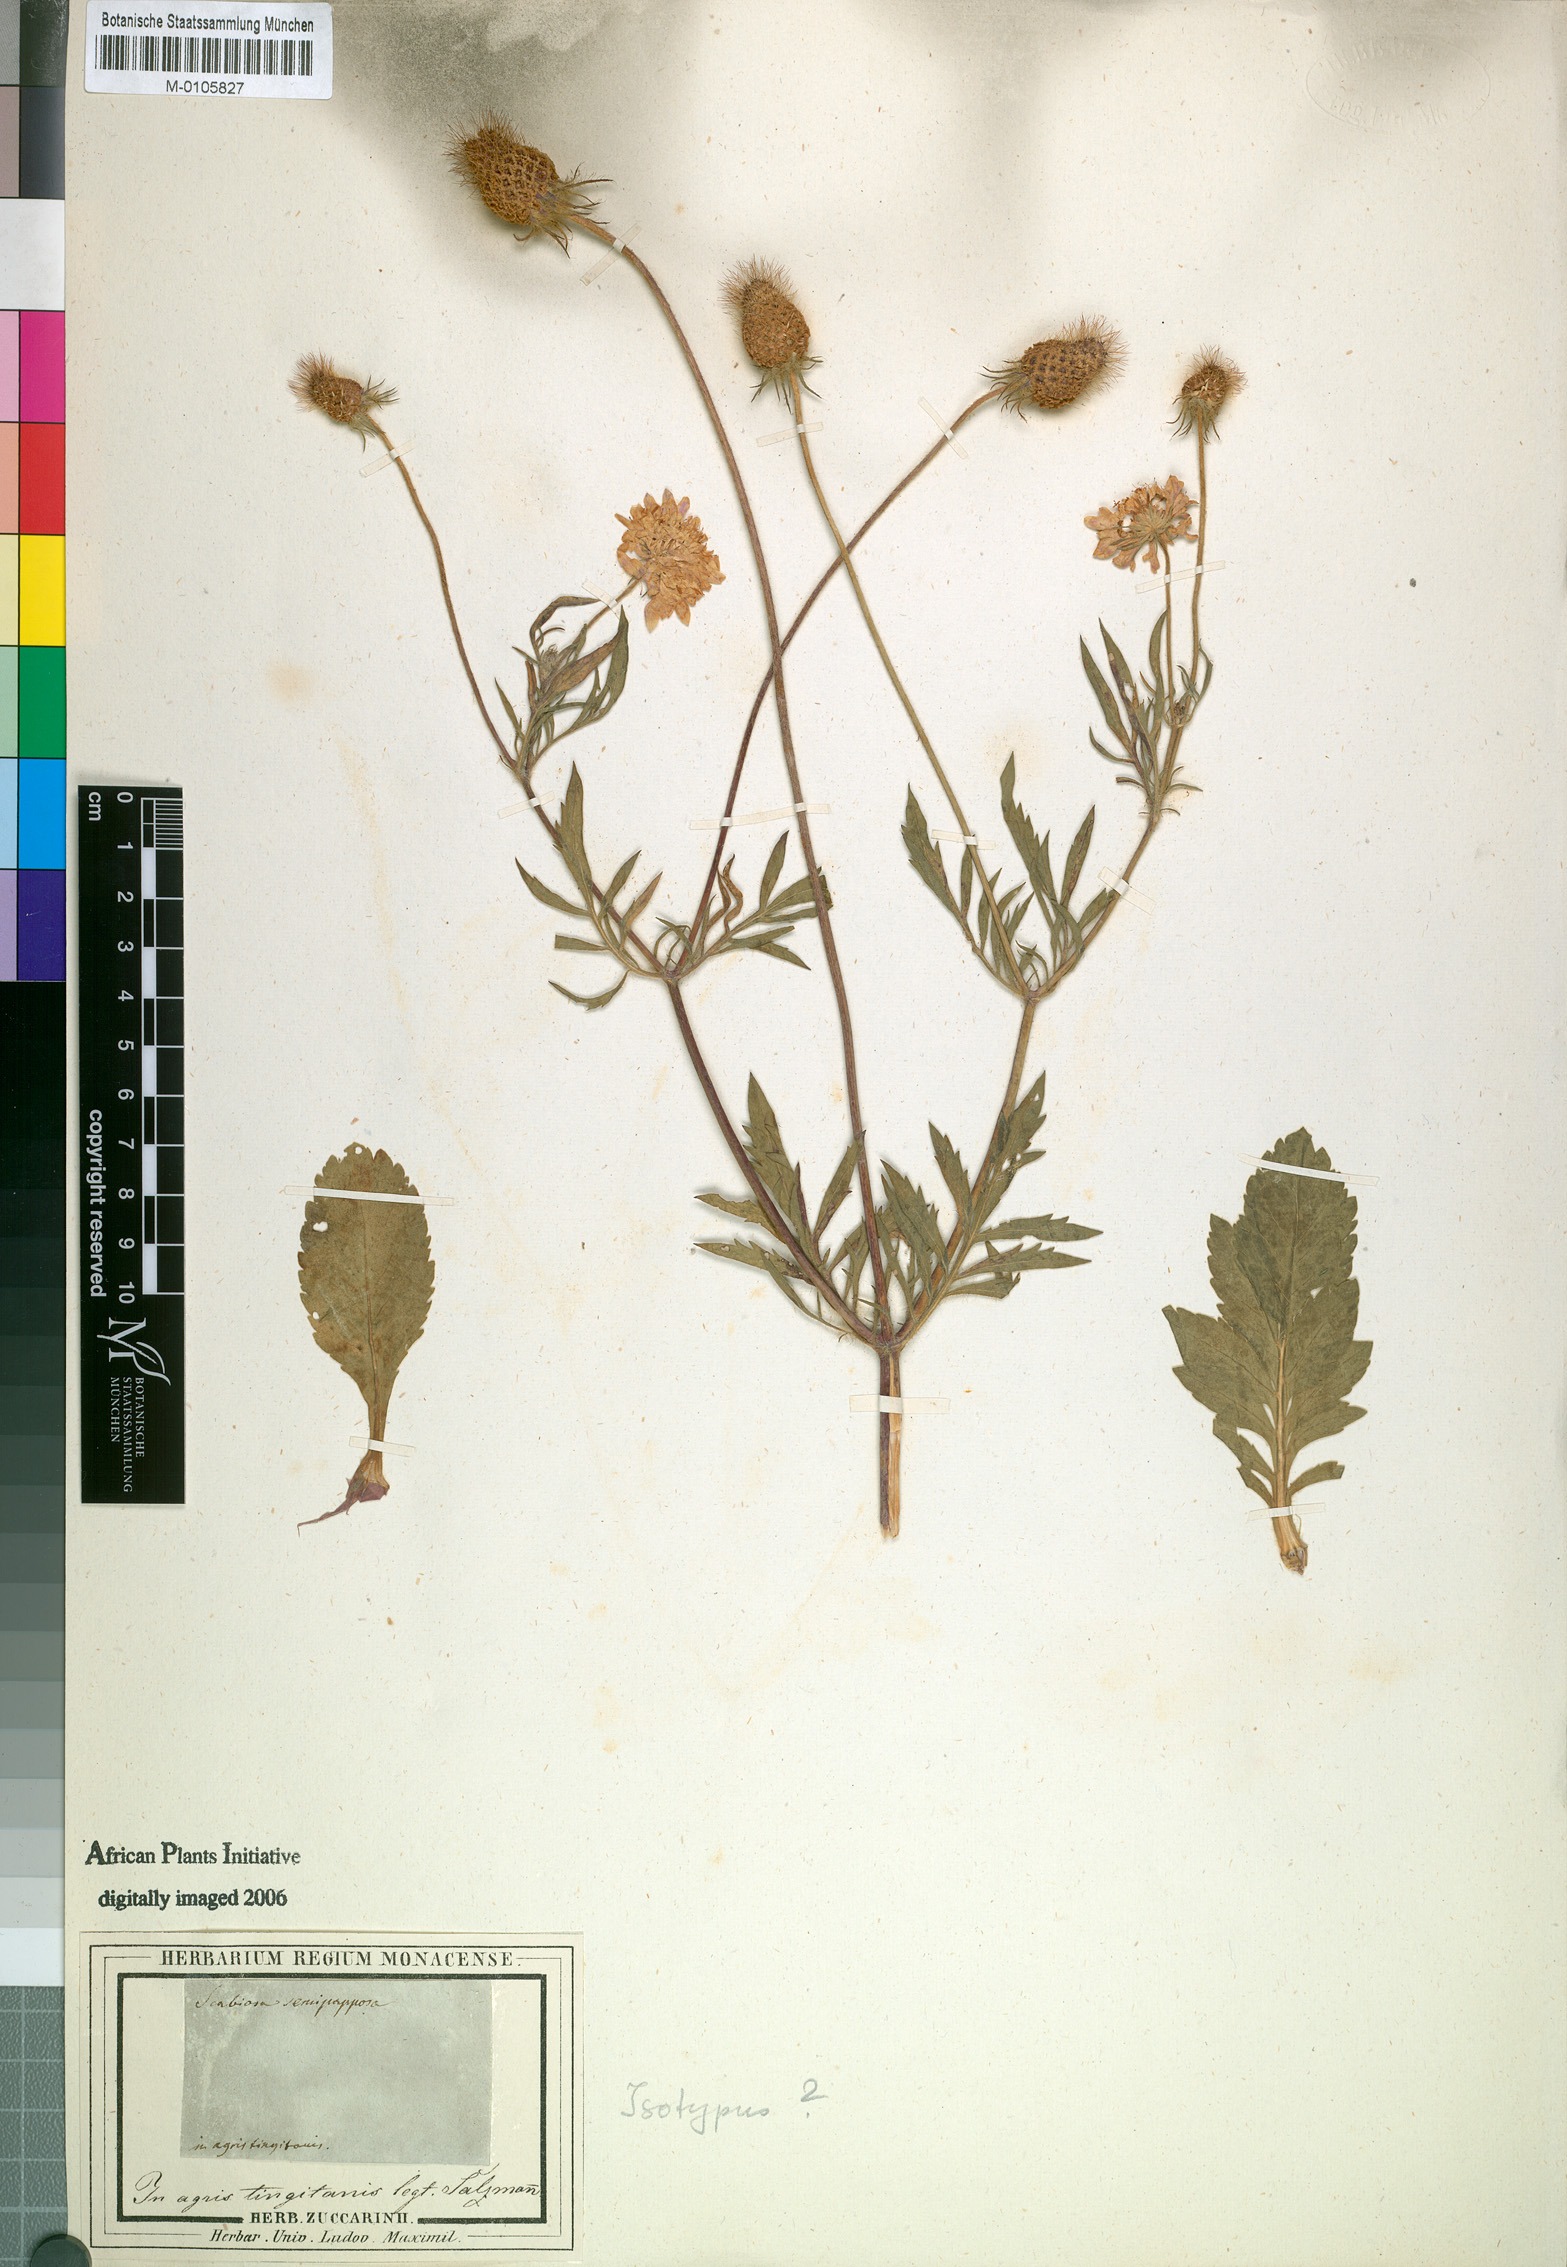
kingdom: Plantae
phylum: Tracheophyta
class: Magnoliopsida
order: Dipsacales
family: Caprifoliaceae
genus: Sixalix
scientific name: Sixalix semipapposa
